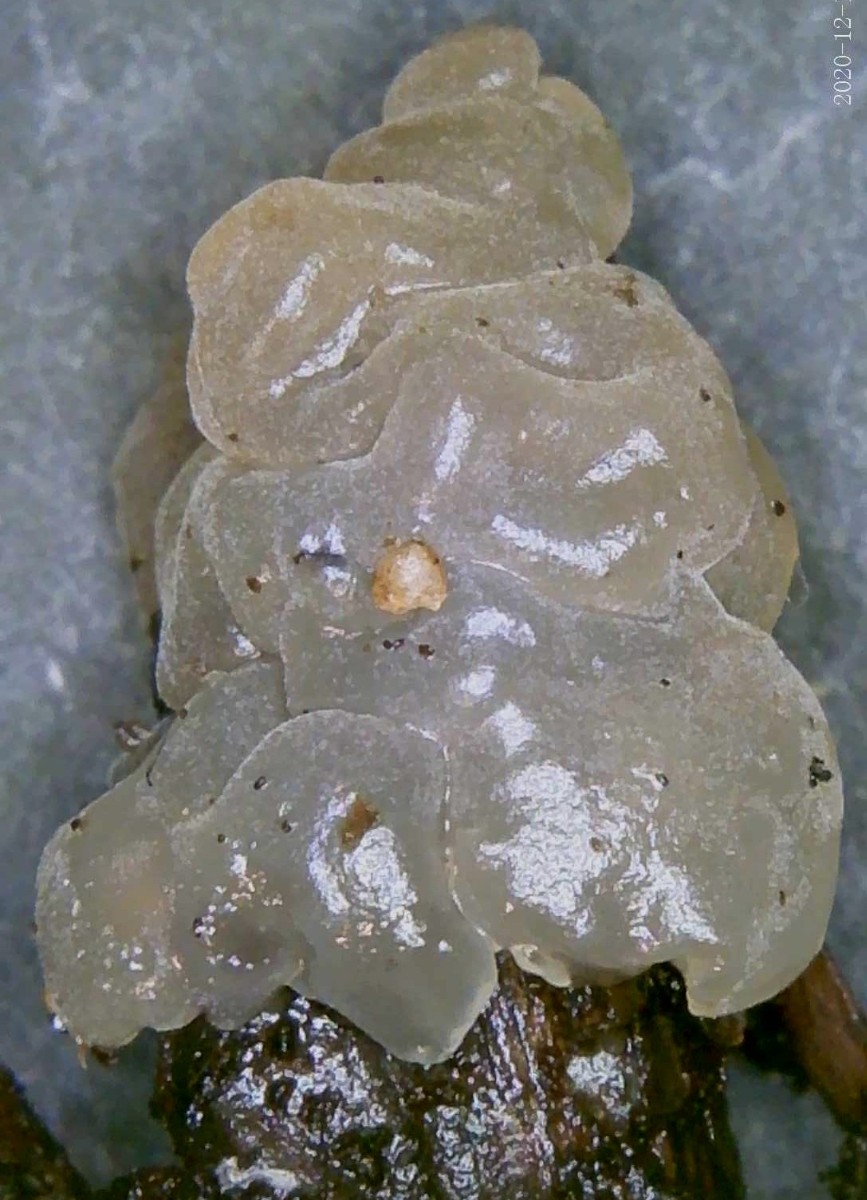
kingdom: Fungi
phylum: Basidiomycota
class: Agaricomycetes
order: Auriculariales
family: Hyaloriaceae
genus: Myxarium
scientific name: Myxarium nucleatum
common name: klar bævretop
